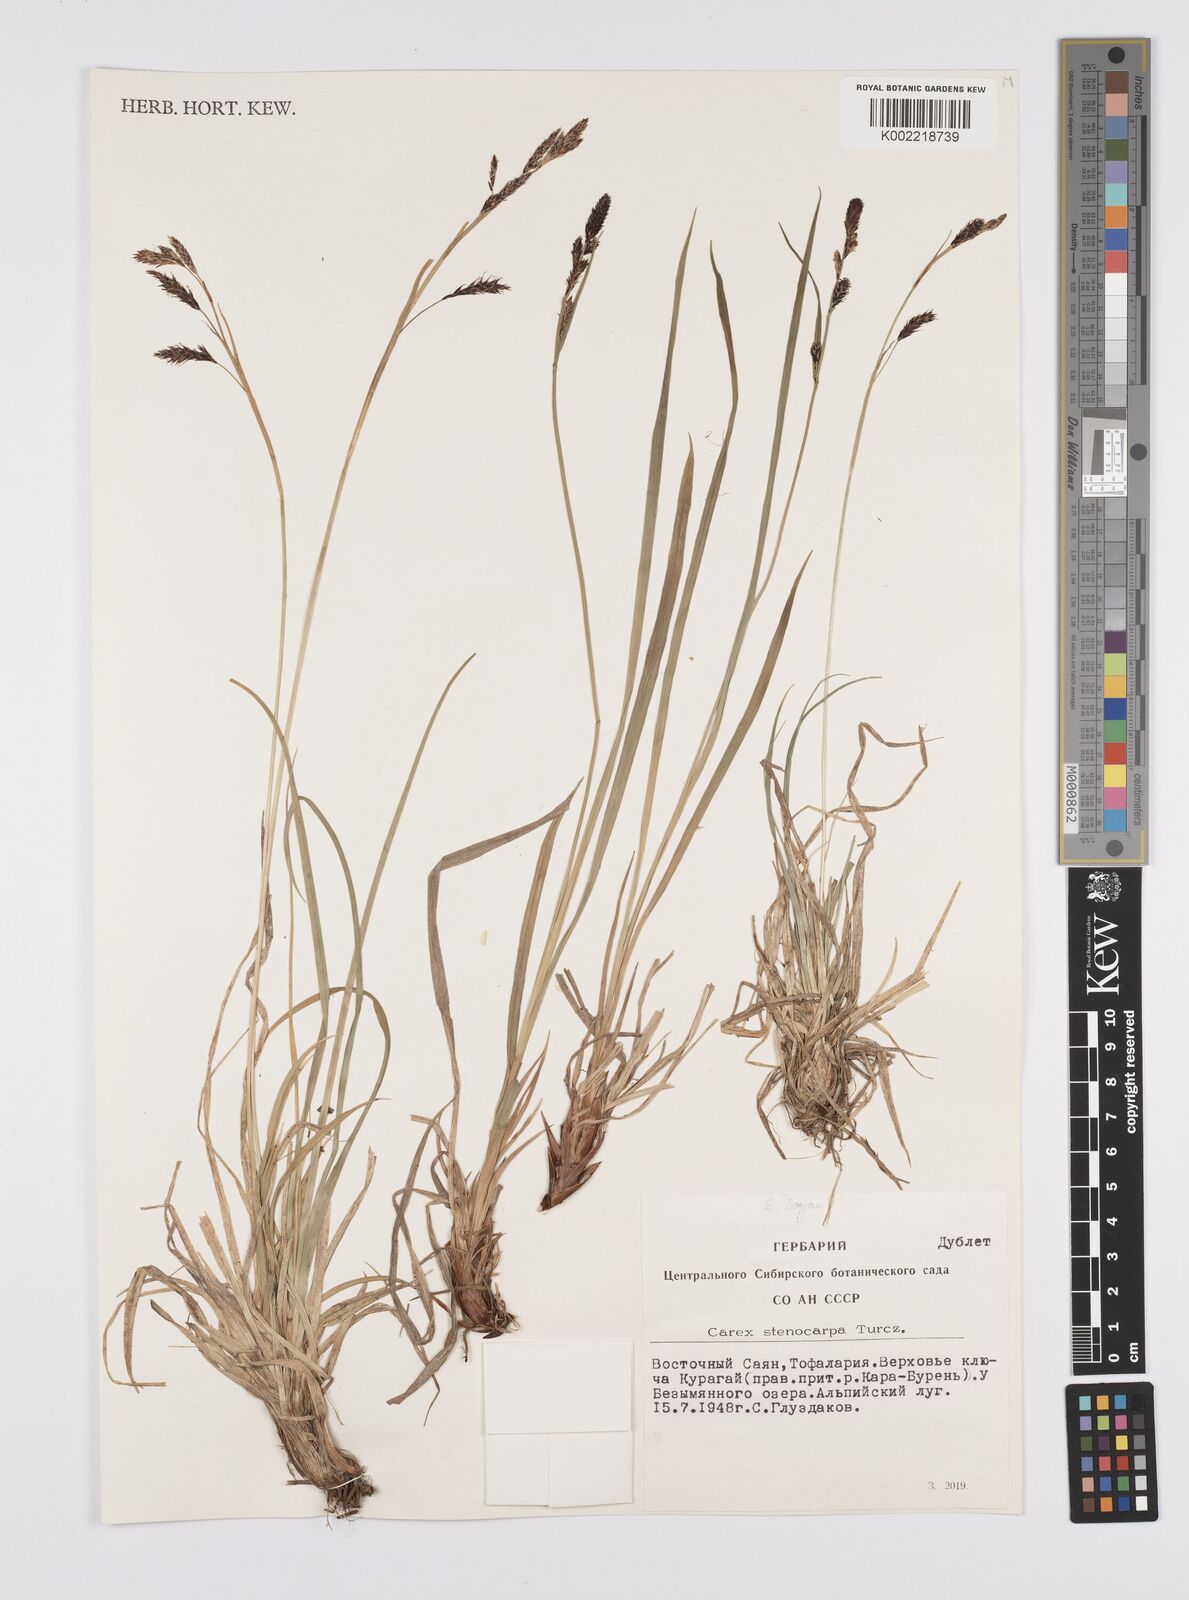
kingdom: Plantae
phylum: Tracheophyta
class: Liliopsida
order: Poales
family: Cyperaceae
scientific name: Cyperaceae
